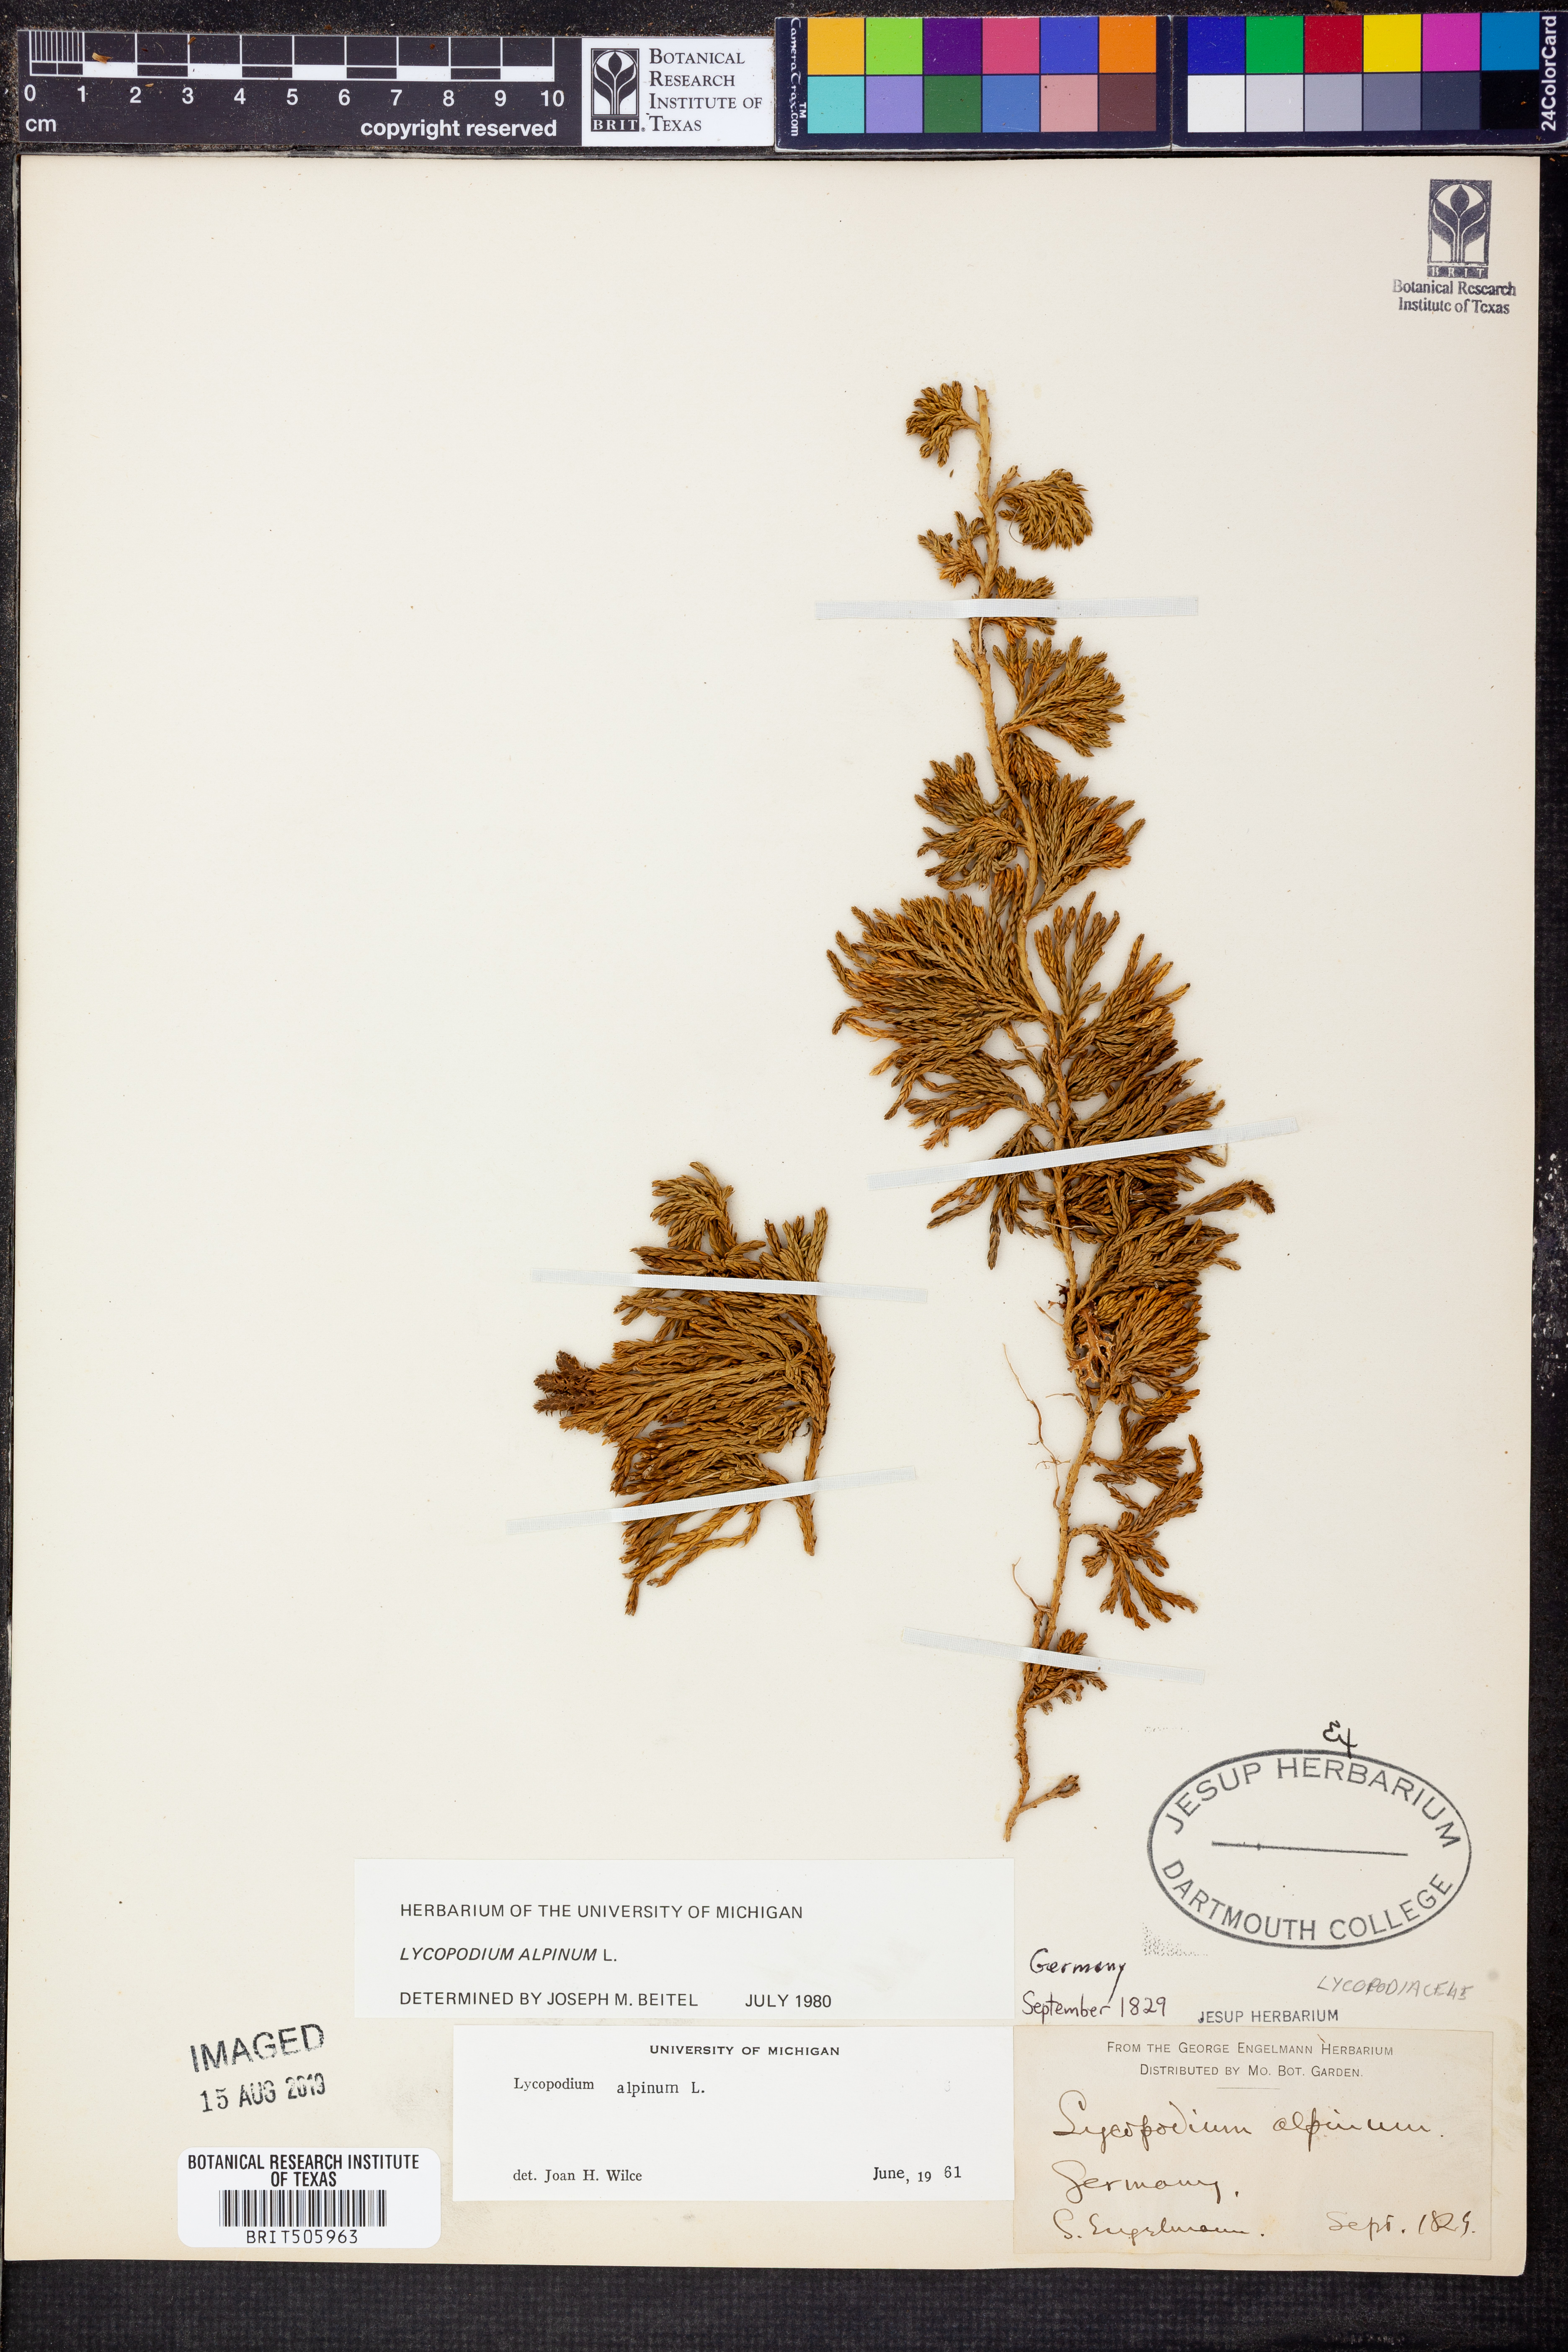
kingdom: Plantae
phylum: Tracheophyta
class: Lycopodiopsida
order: Lycopodiales
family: Lycopodiaceae
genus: Diphasiastrum
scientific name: Diphasiastrum alpinum
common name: Alpine clubmoss
